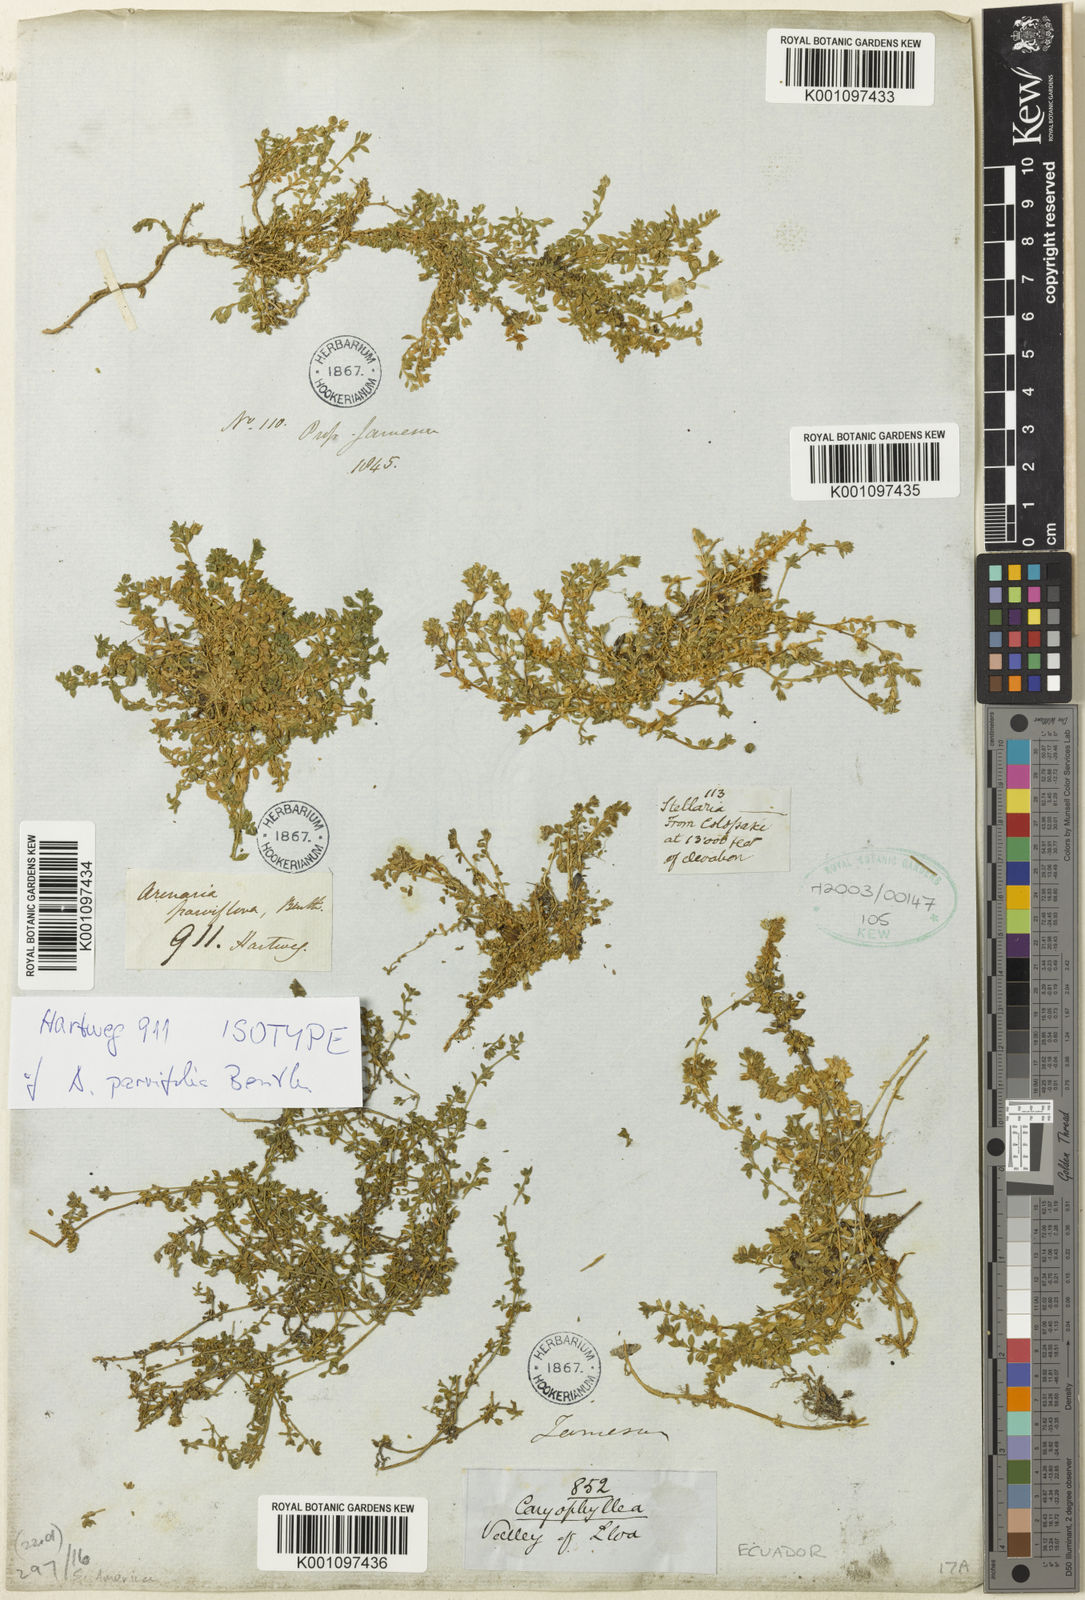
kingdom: Plantae
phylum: Tracheophyta
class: Magnoliopsida
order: Caryophyllales
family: Caryophyllaceae
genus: Arenaria
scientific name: Arenaria
